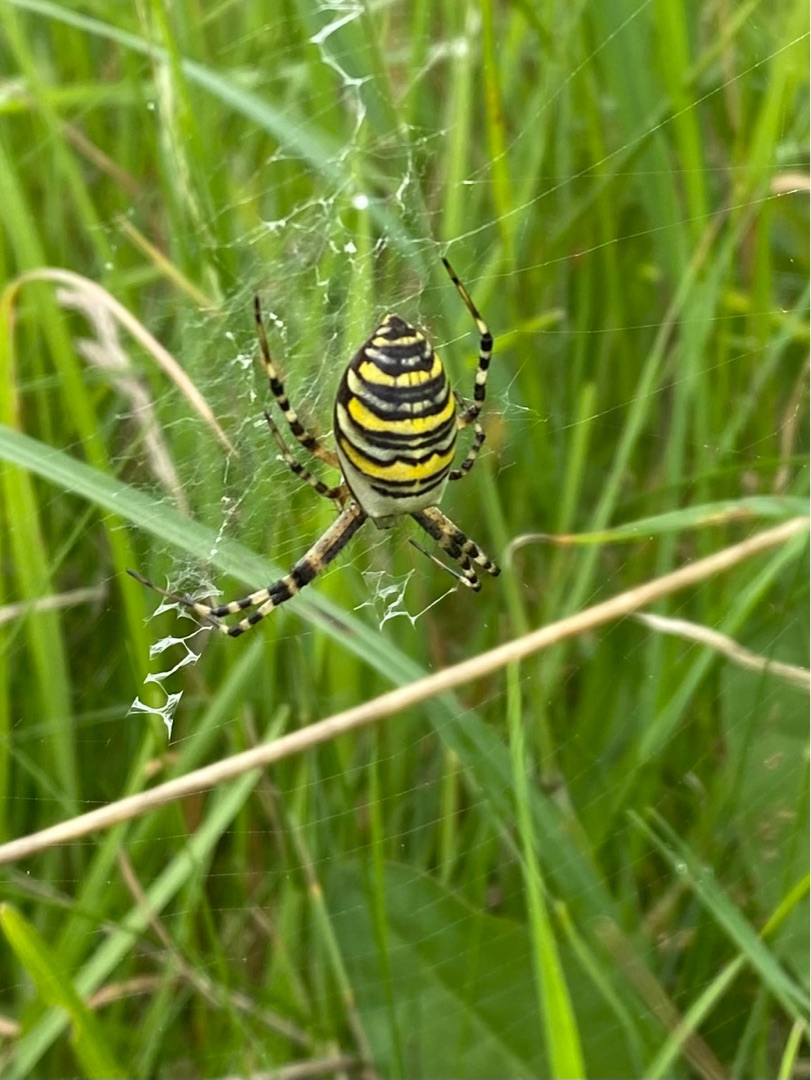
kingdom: Animalia
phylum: Arthropoda
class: Arachnida
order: Araneae
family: Araneidae
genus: Argiope
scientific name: Argiope bruennichi
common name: Hvepseedderkop
